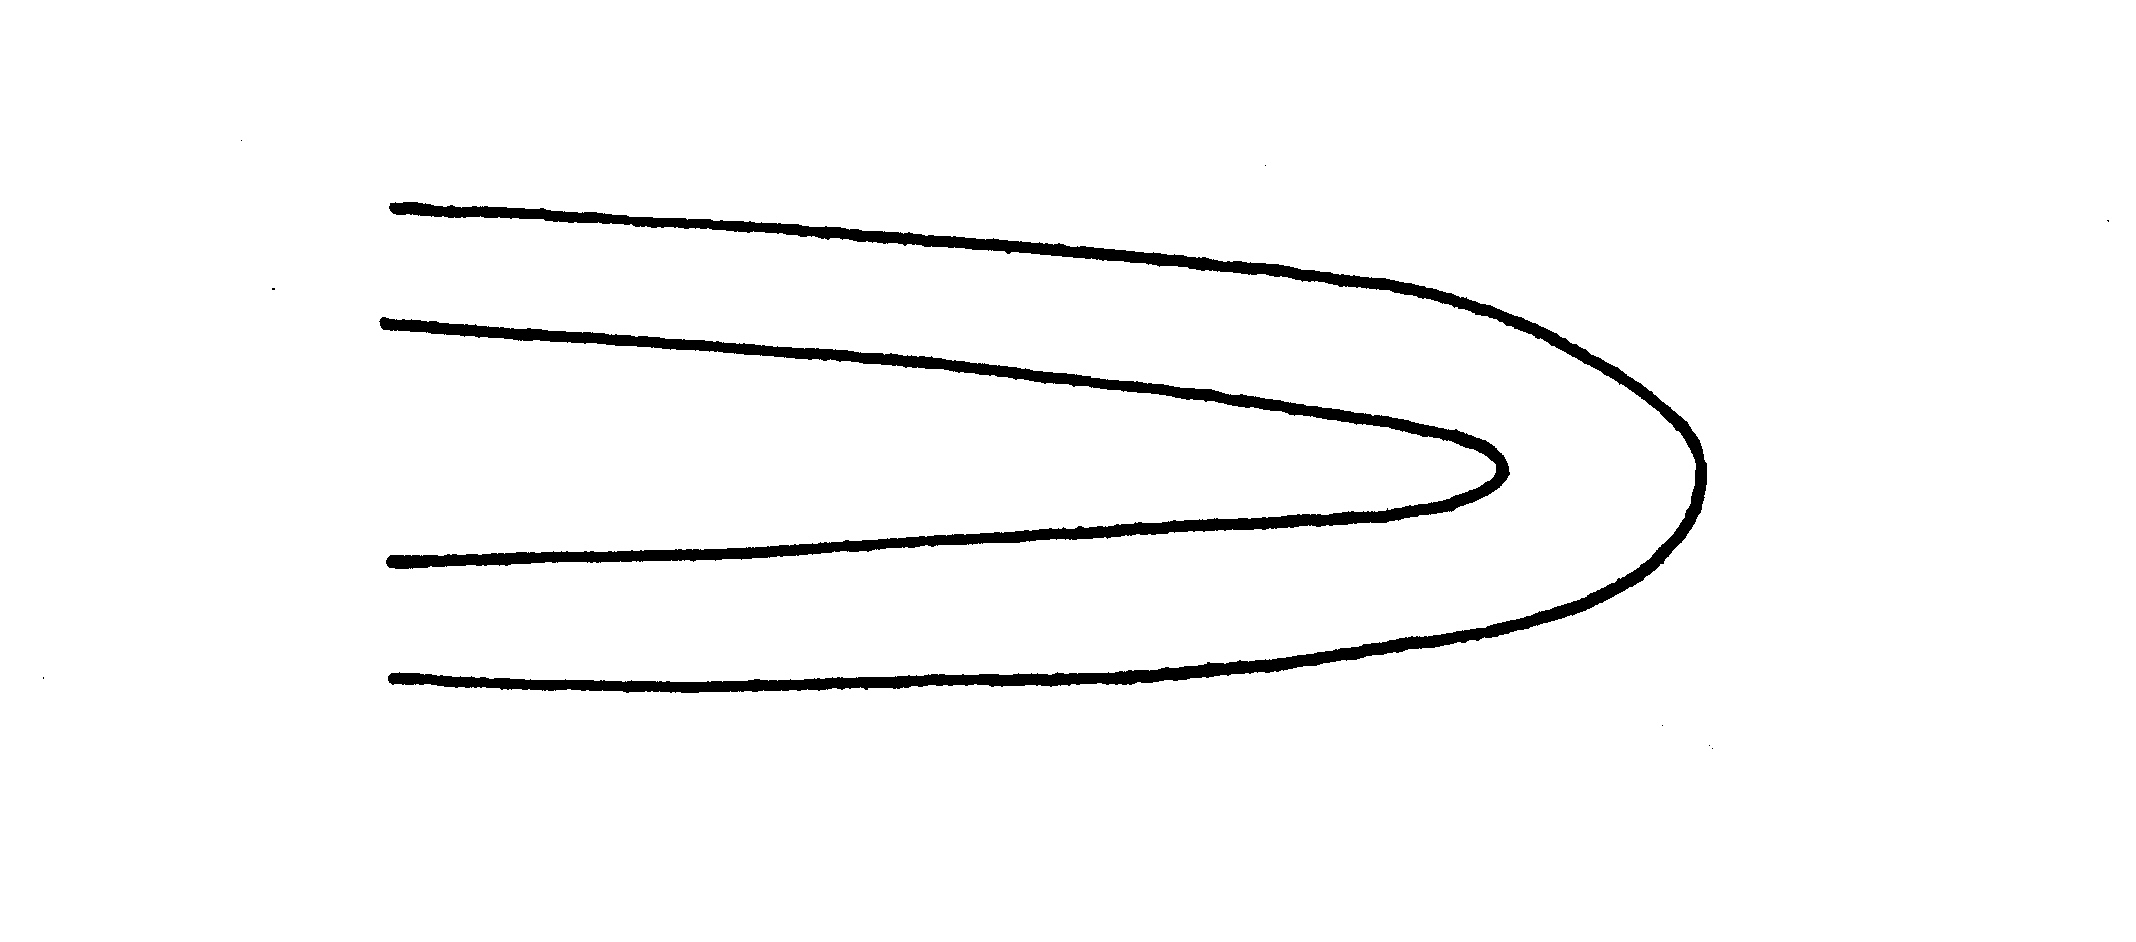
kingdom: Animalia
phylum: Chordata
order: Anguilliformes
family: Ophichthidae
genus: Scolecenchelys
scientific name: Scolecenchelys
